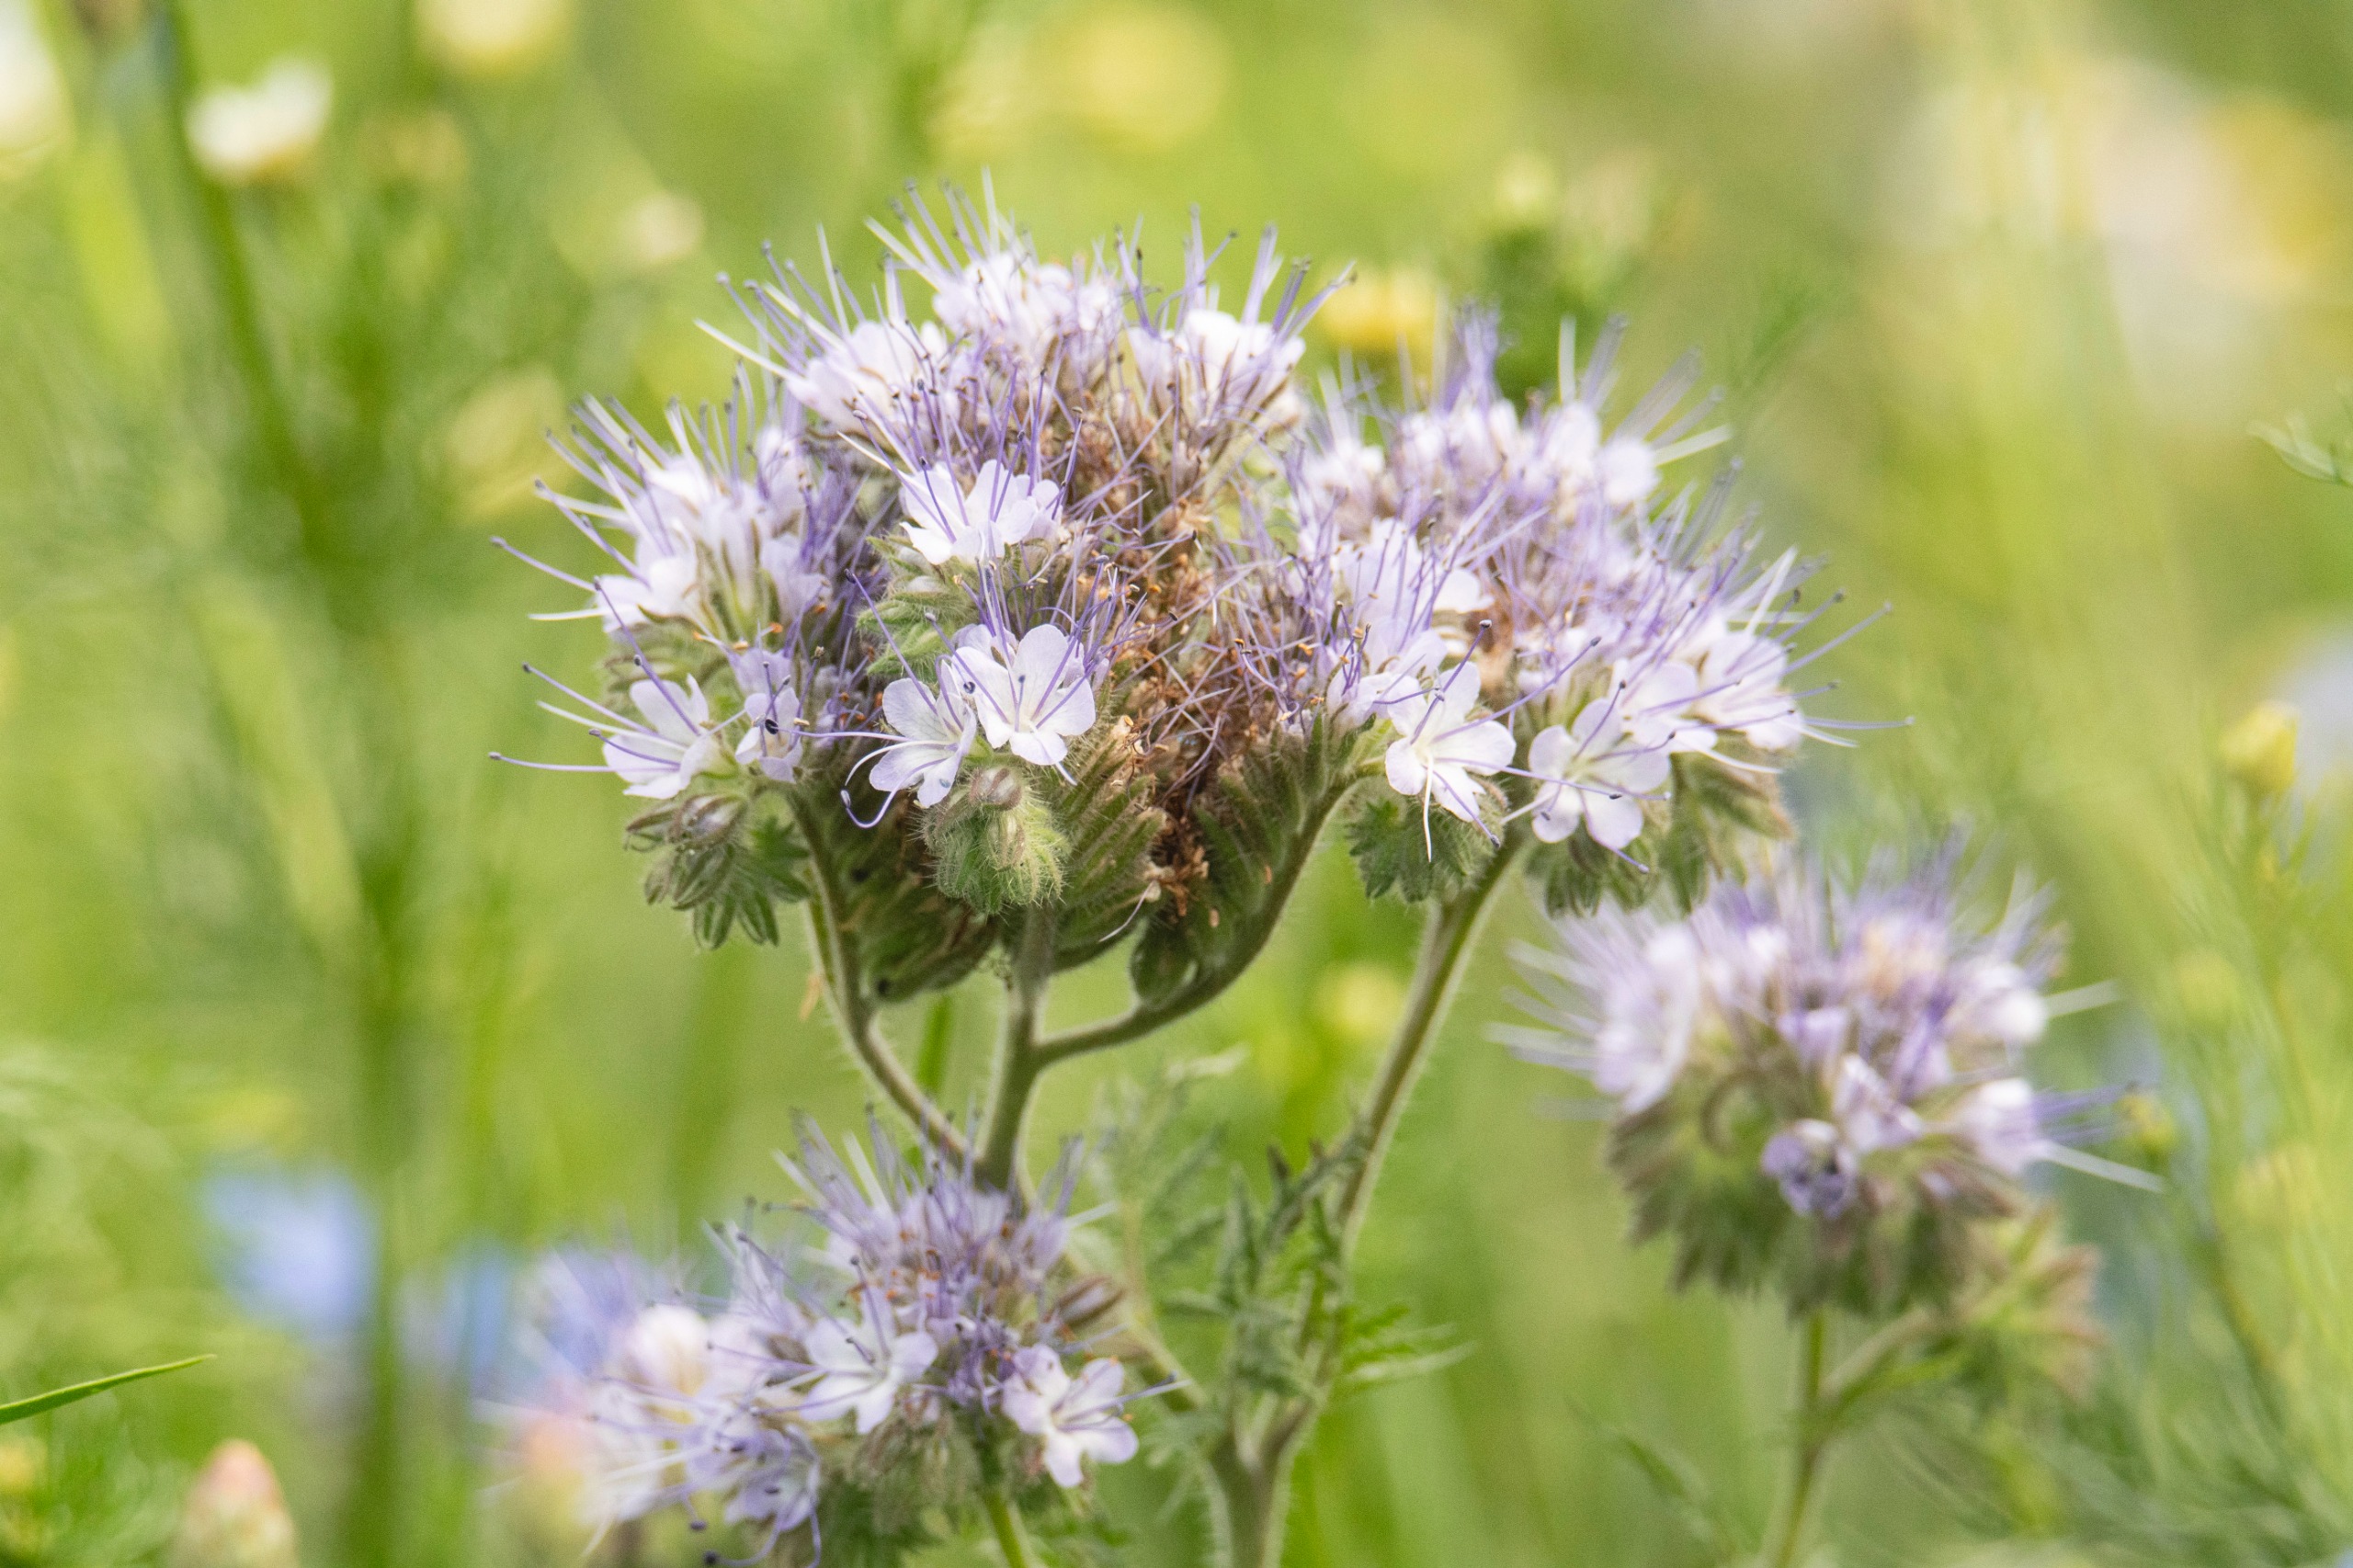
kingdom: Plantae
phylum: Tracheophyta
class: Magnoliopsida
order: Boraginales
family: Hydrophyllaceae
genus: Phacelia
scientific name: Phacelia tanacetifolia
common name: Honningurt
